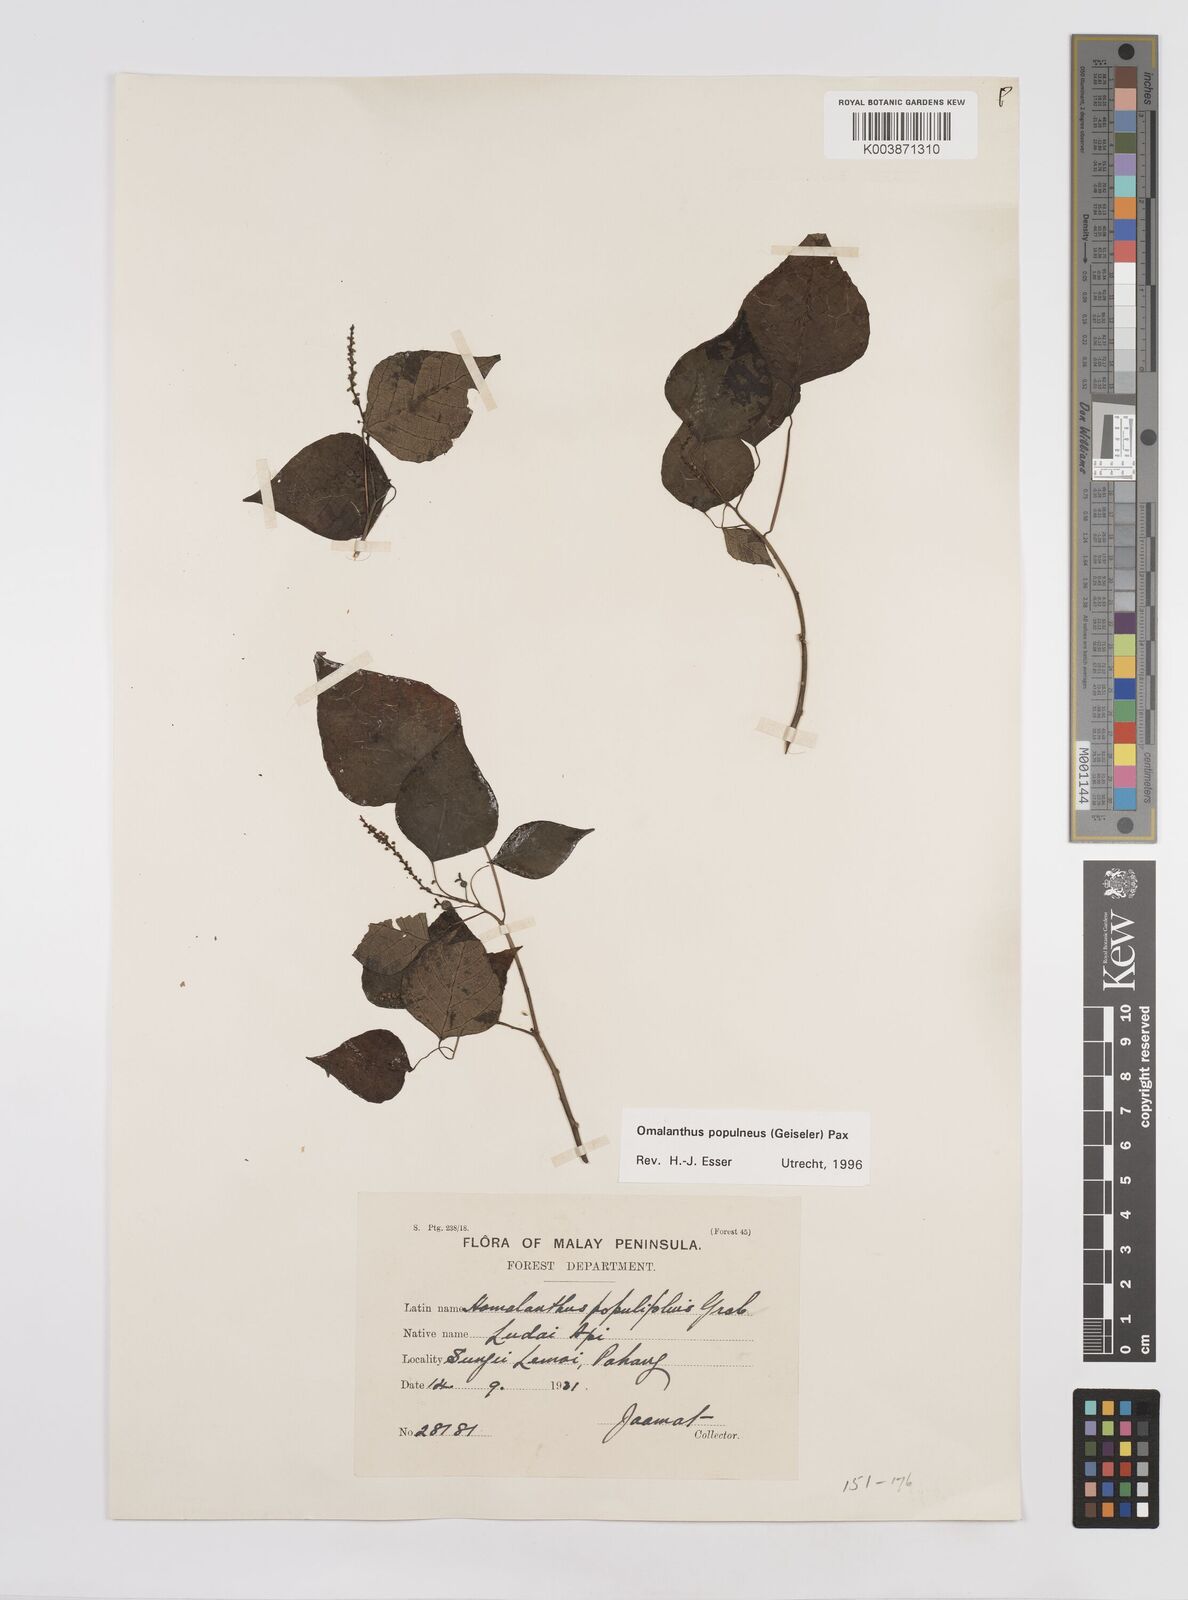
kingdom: Plantae
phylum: Tracheophyta
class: Magnoliopsida
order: Malpighiales
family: Euphorbiaceae
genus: Homalanthus
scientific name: Homalanthus populneus
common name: Spurge
